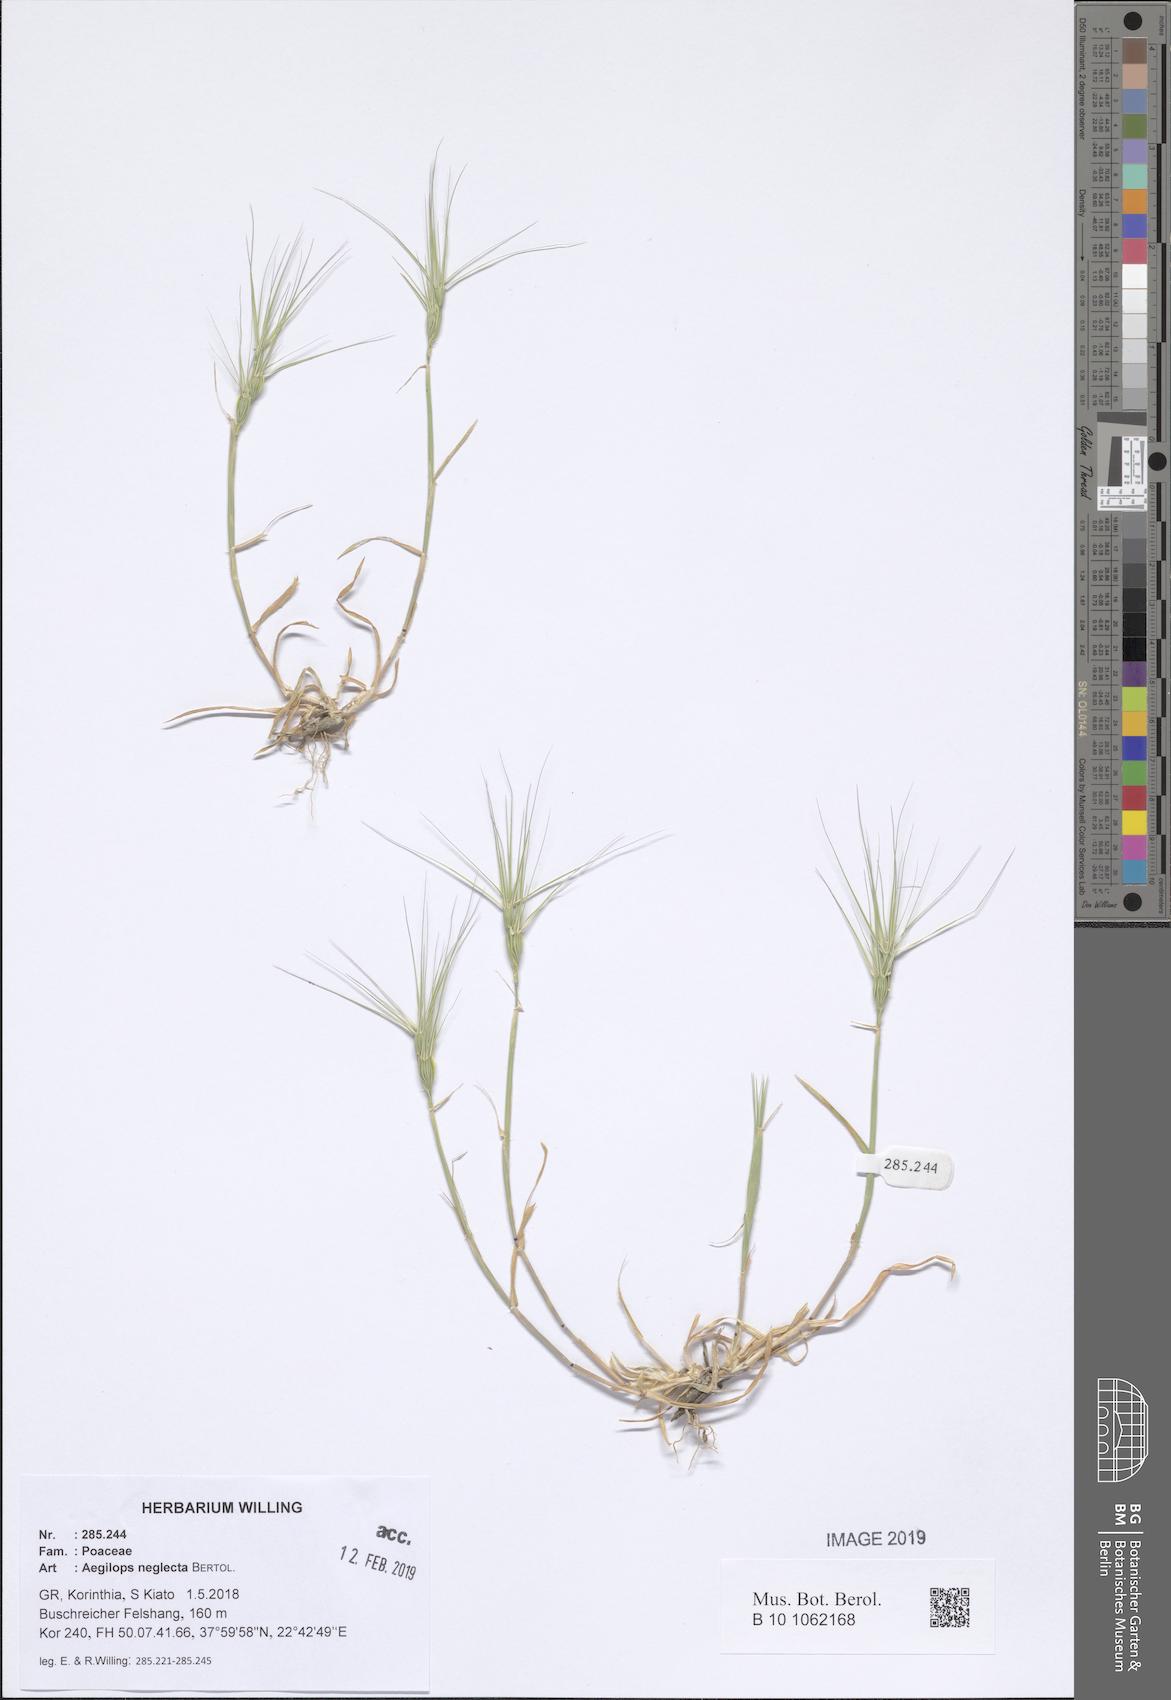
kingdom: Plantae
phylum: Tracheophyta
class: Liliopsida
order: Poales
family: Poaceae
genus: Aegilops
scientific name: Aegilops neglecta
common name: Three-awn goat grass
